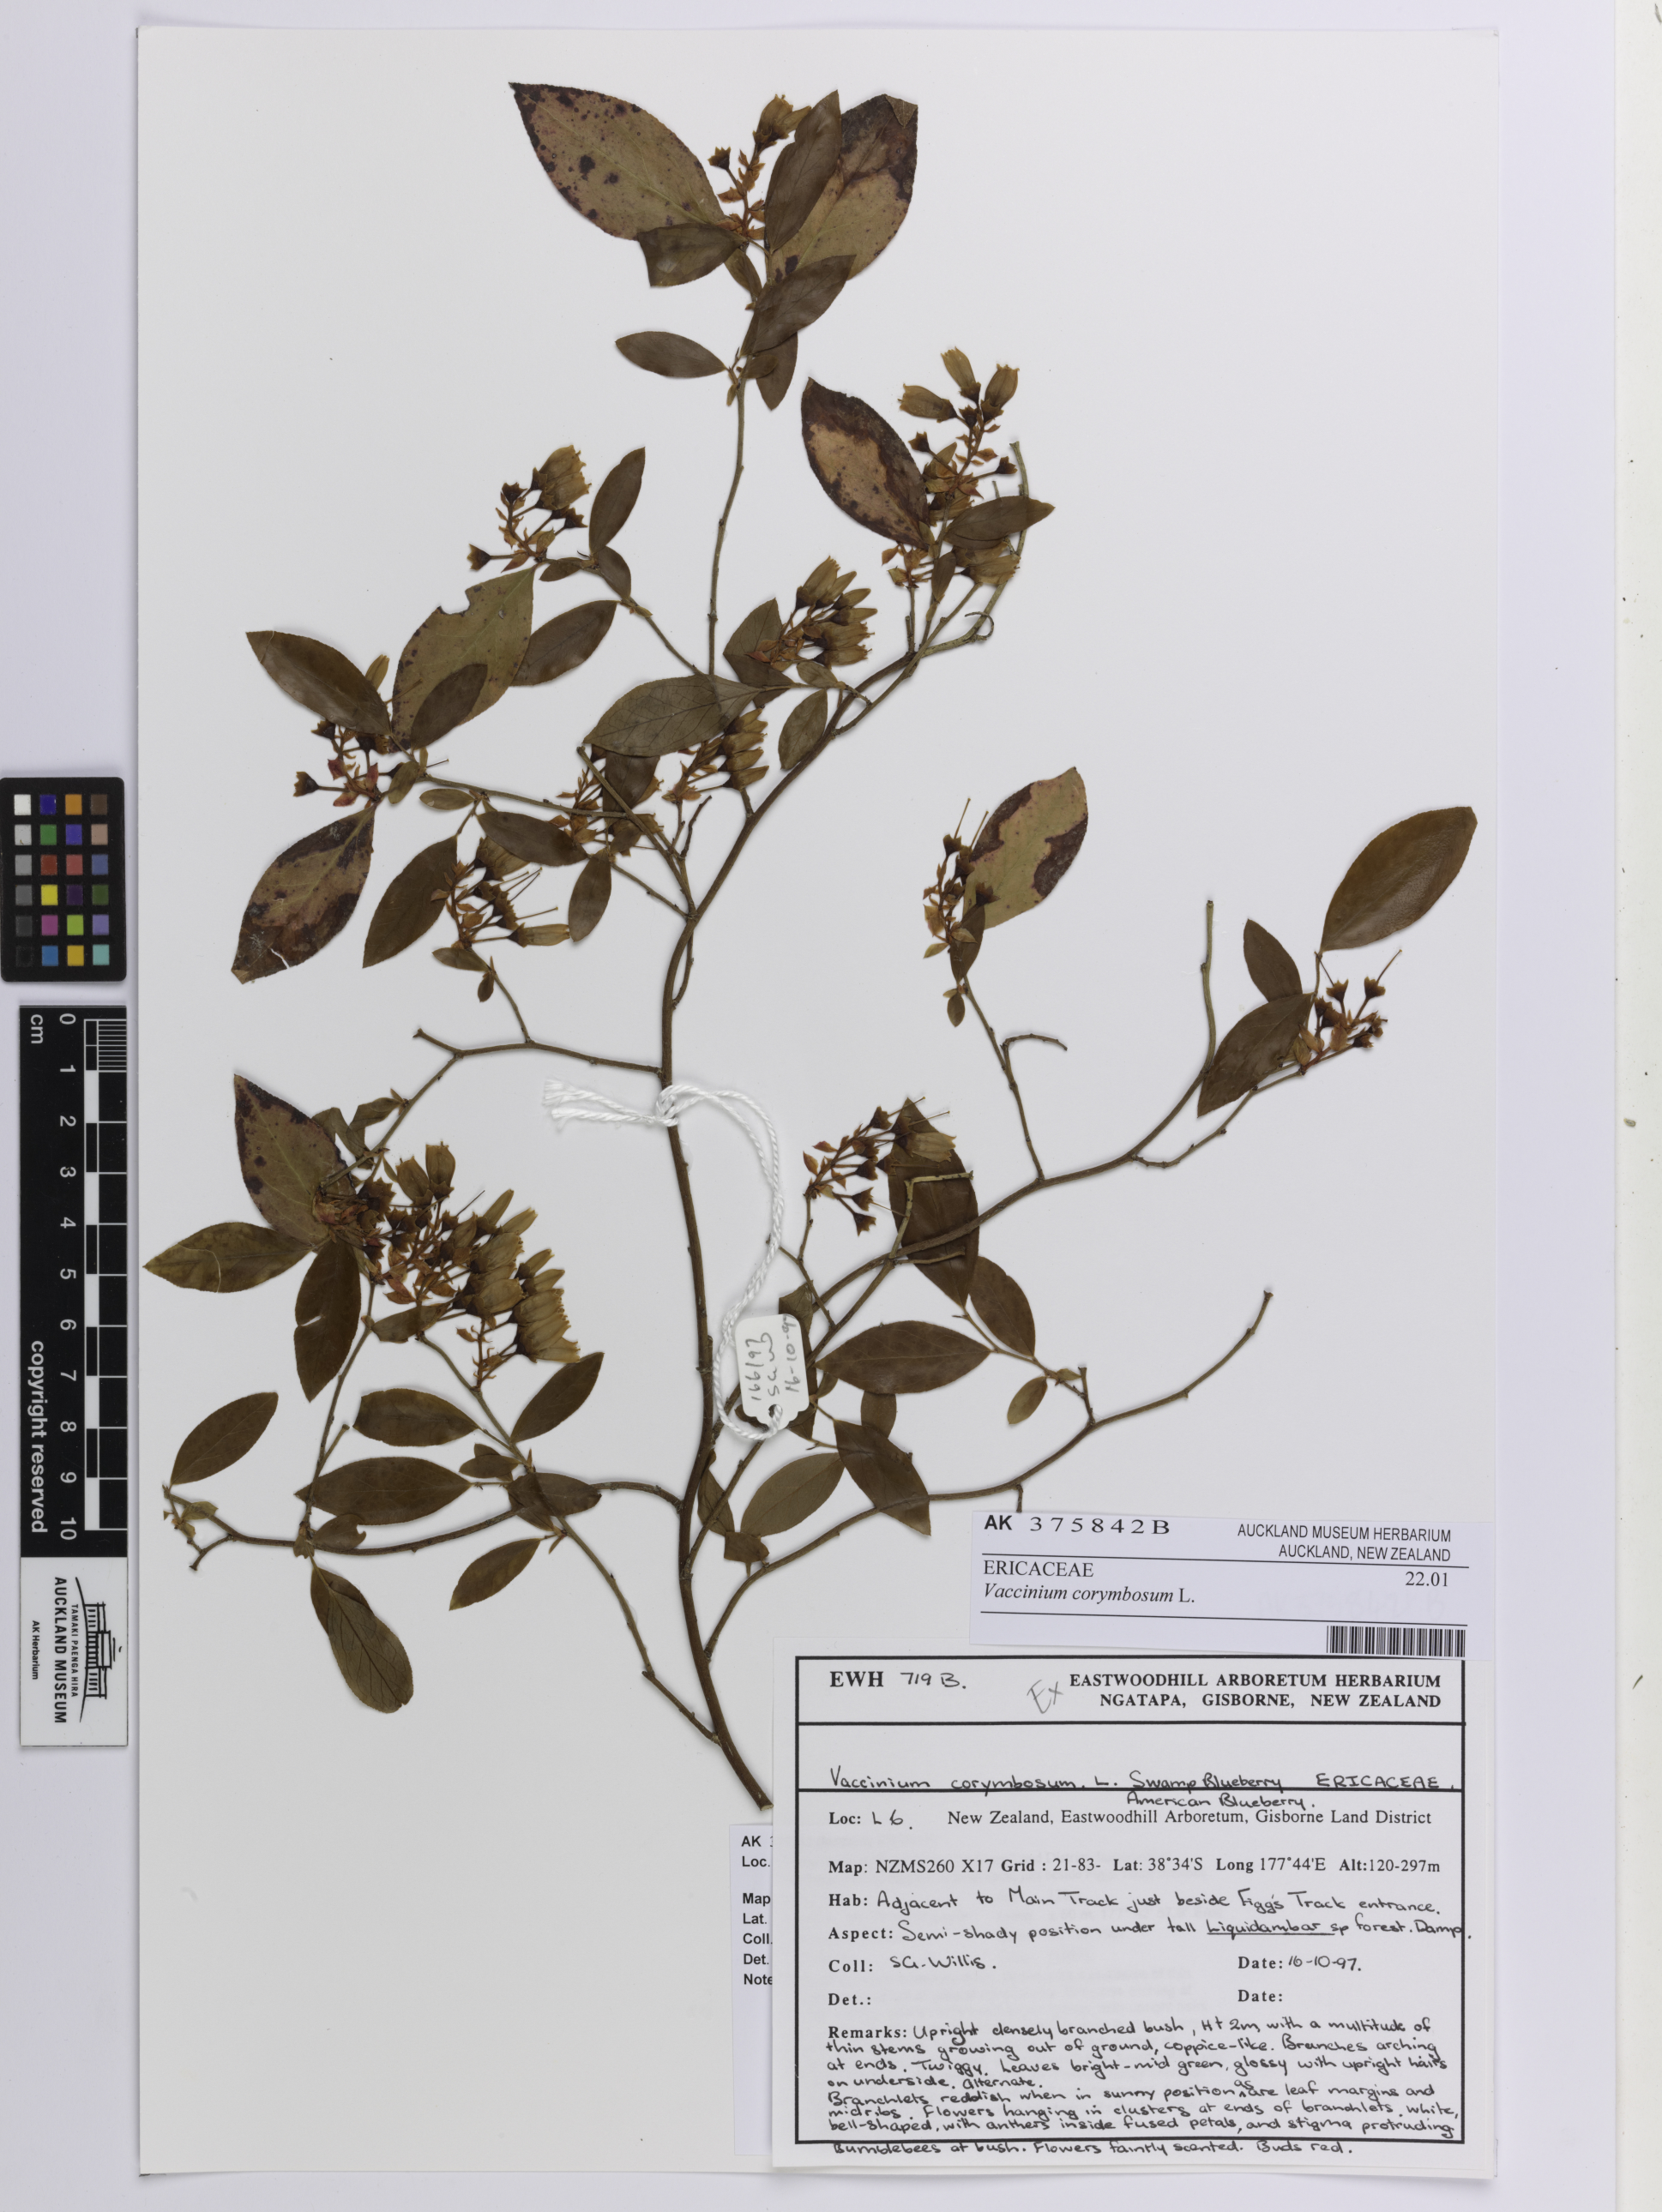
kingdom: Plantae
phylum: Tracheophyta
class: Magnoliopsida
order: Ericales
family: Ericaceae
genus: Vaccinium
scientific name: Vaccinium corymbosum
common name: Blueberry
